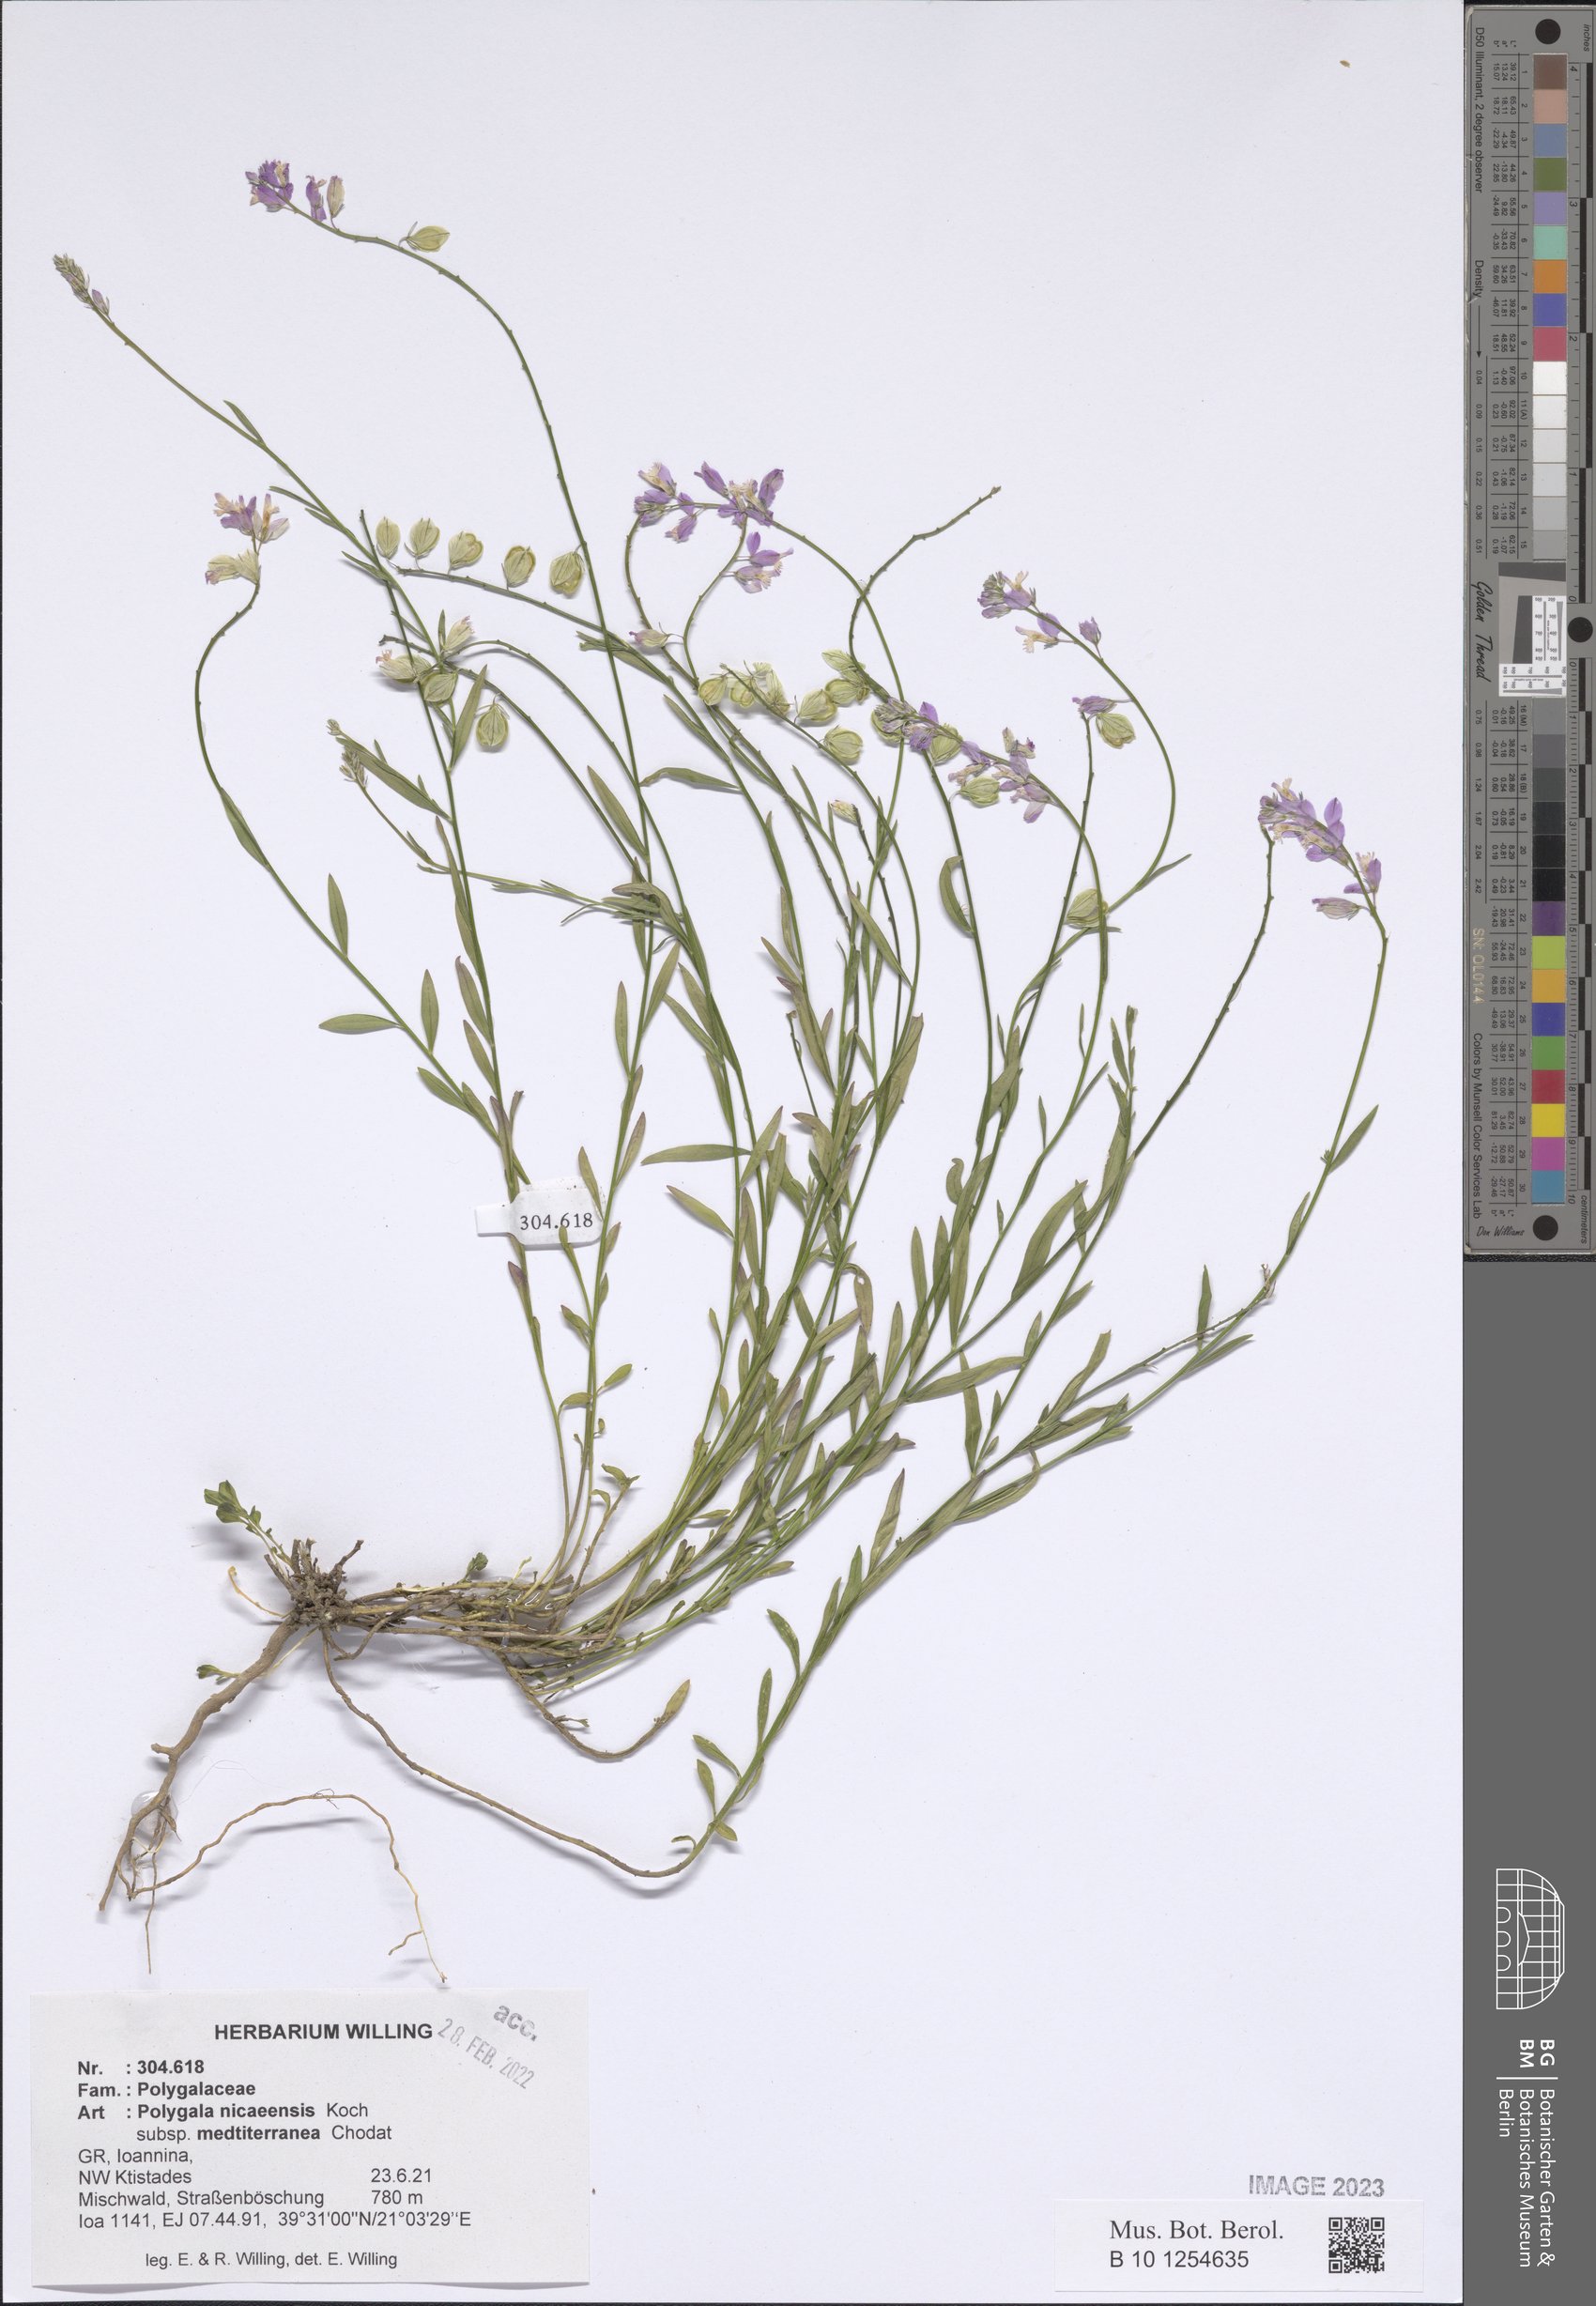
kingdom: Plantae
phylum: Tracheophyta
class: Magnoliopsida
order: Fabales
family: Polygalaceae
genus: Polygala
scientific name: Polygala nicaeensis
